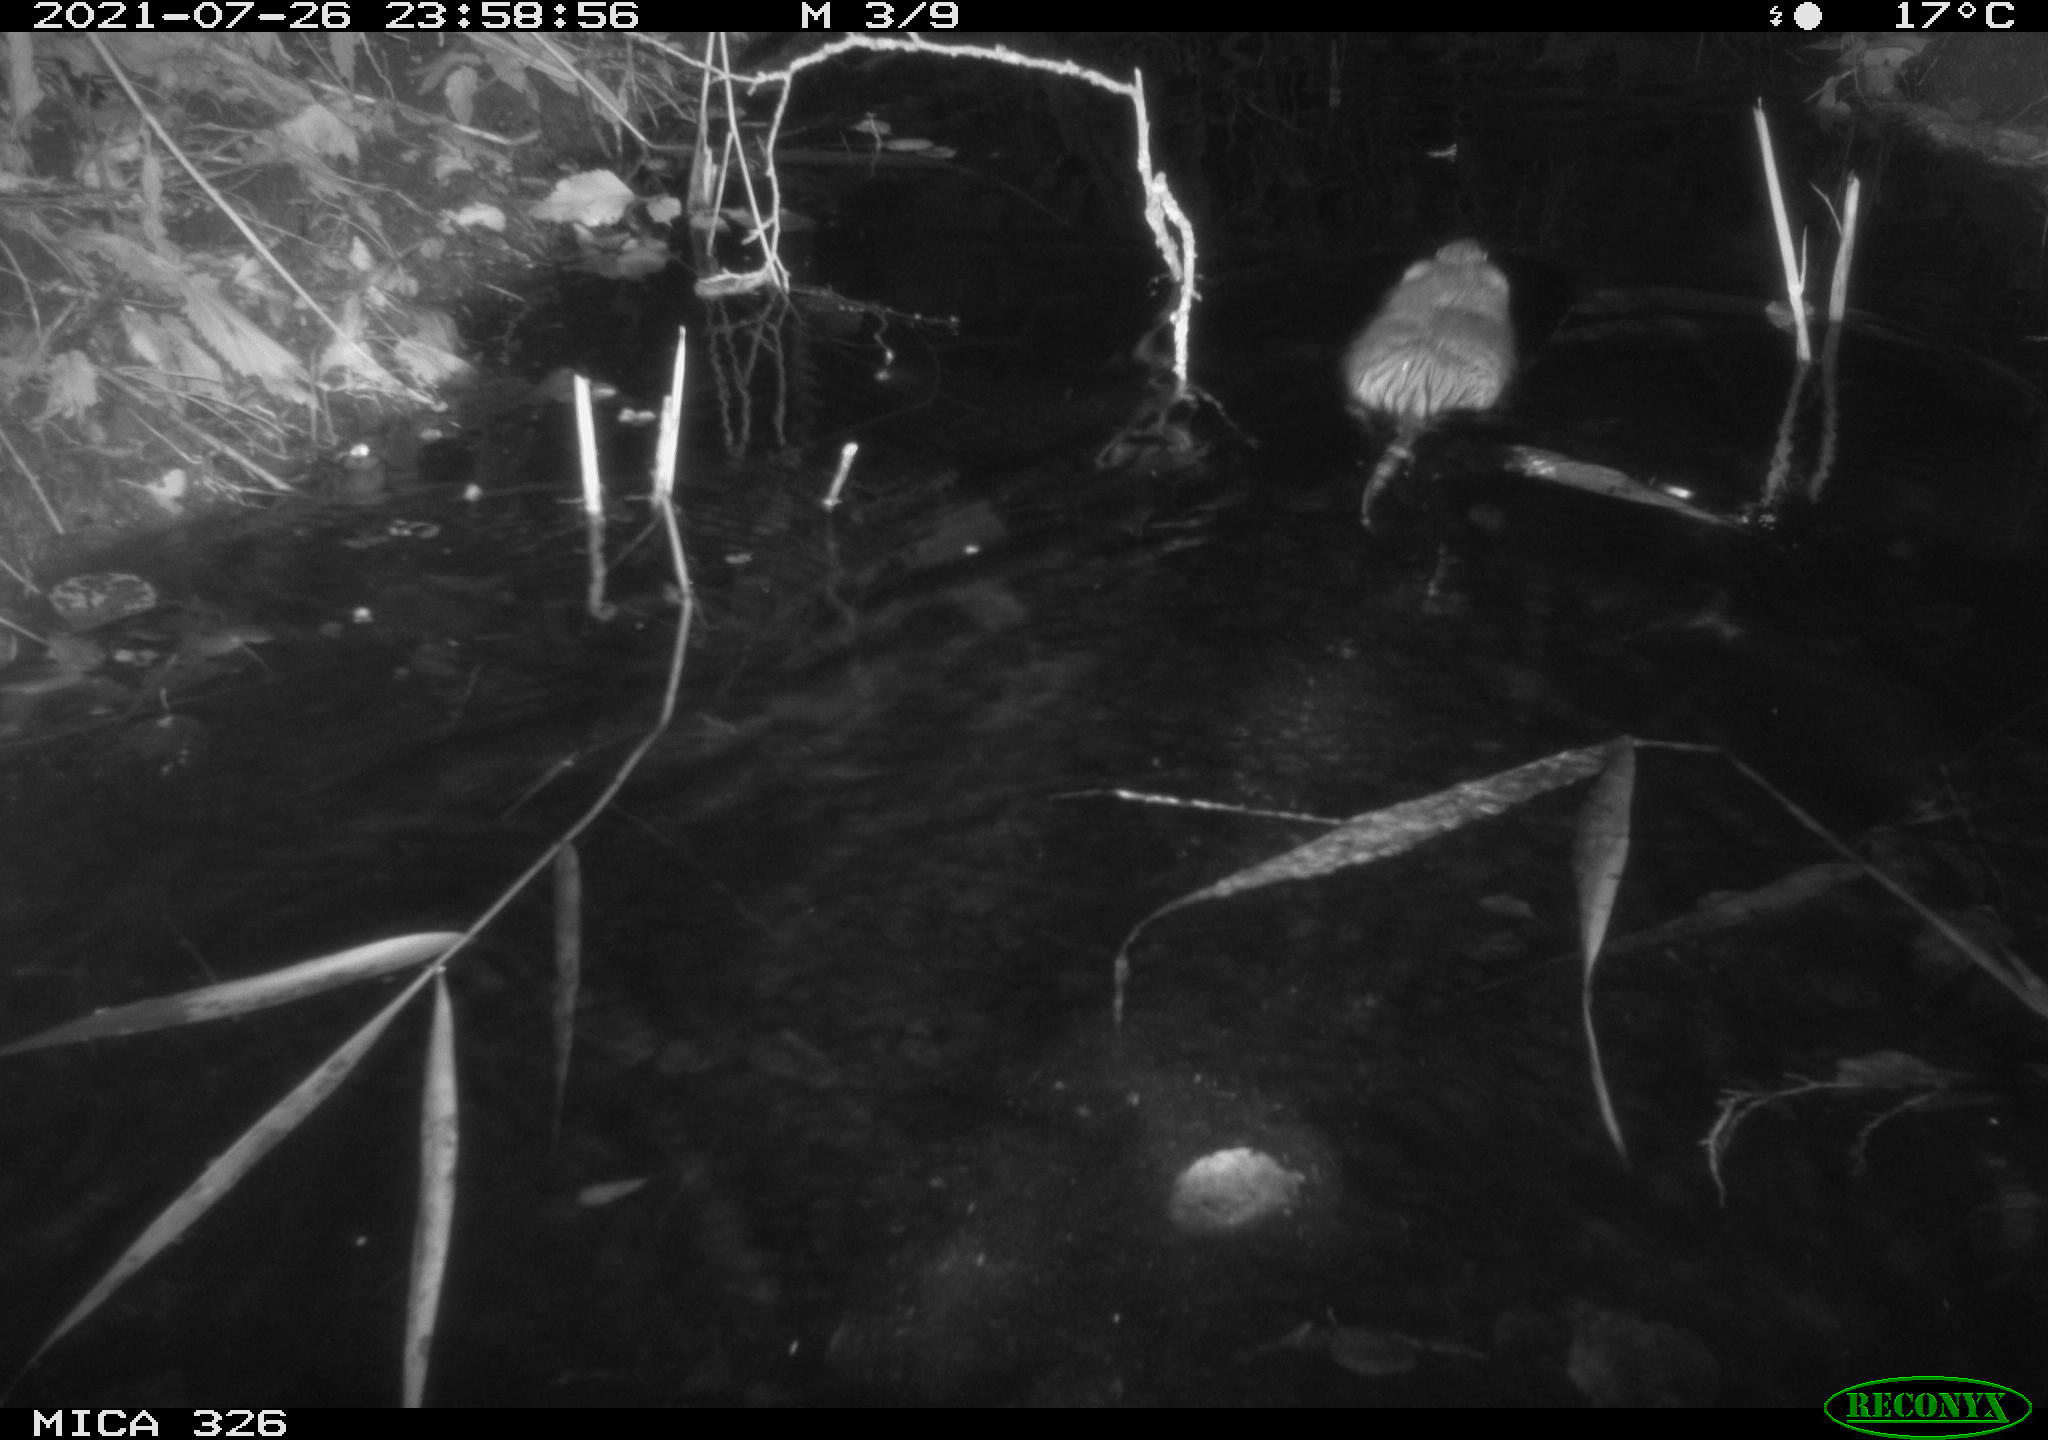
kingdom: Animalia
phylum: Chordata
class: Mammalia
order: Rodentia
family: Cricetidae
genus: Ondatra
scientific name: Ondatra zibethicus
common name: Muskrat
